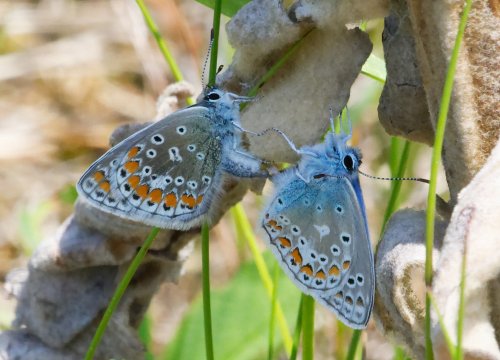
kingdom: Animalia
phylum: Arthropoda
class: Insecta
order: Lepidoptera
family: Lycaenidae
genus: Polyommatus
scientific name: Polyommatus icarus
